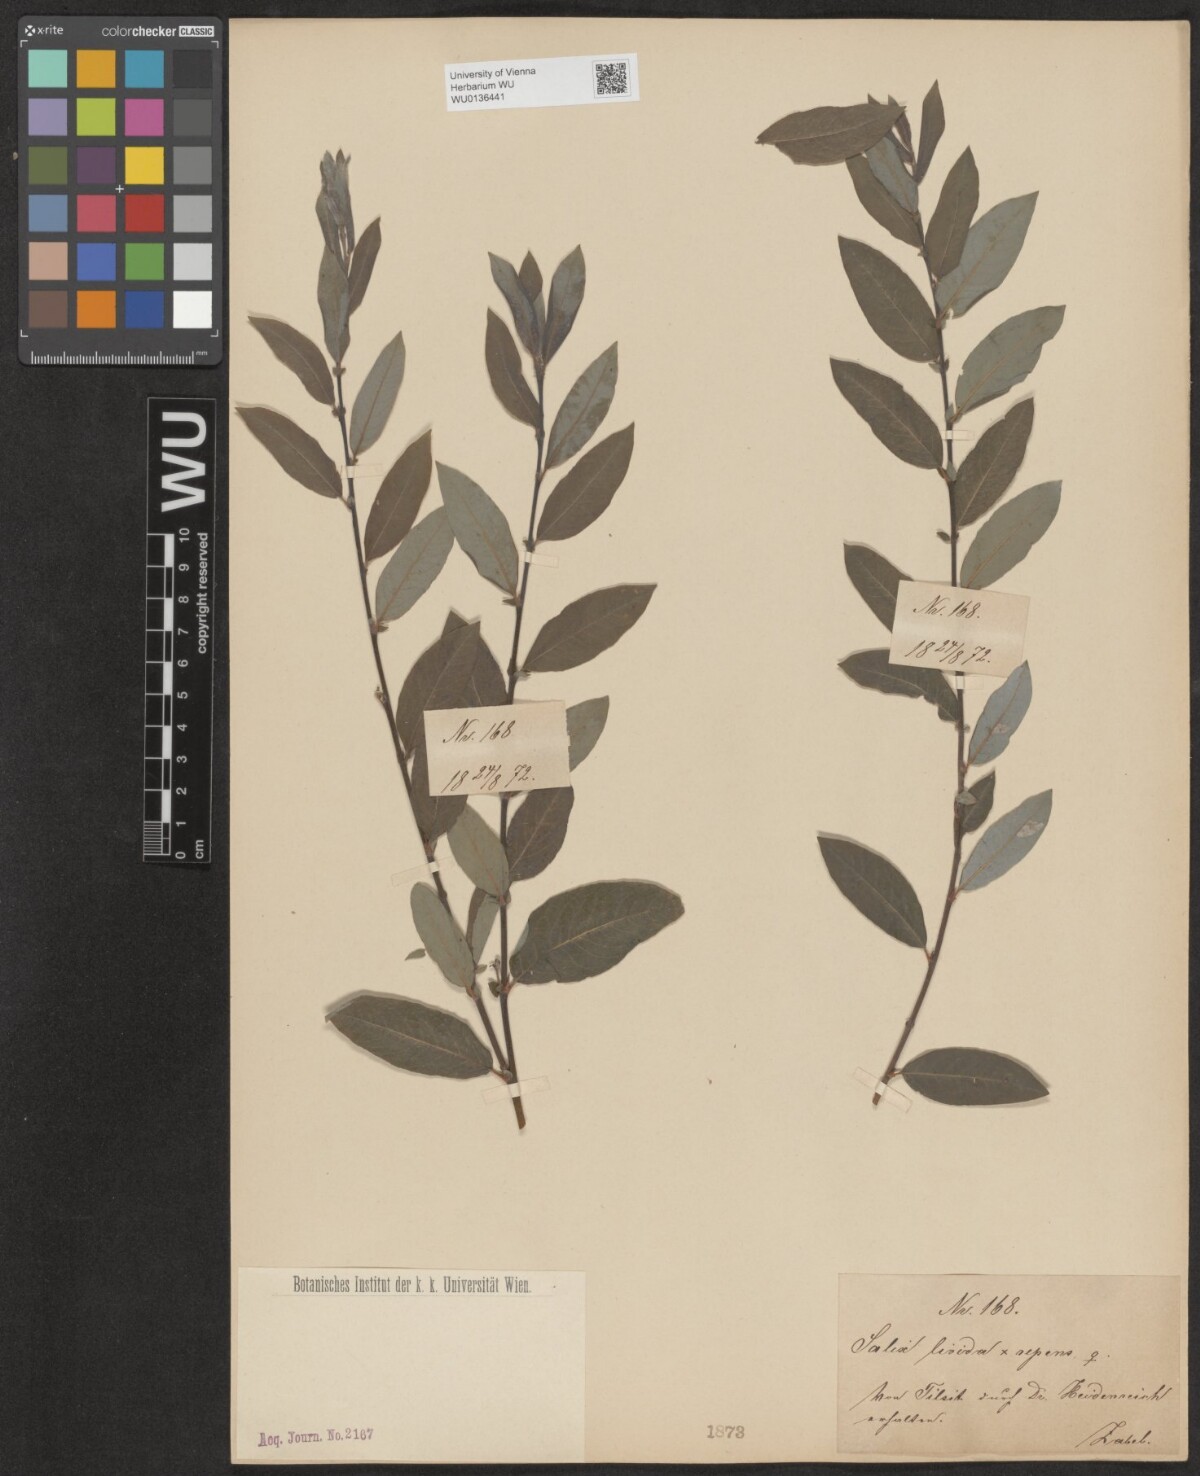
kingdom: Plantae
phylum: Tracheophyta
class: Magnoliopsida
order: Malpighiales
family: Salicaceae
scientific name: Salicaceae
